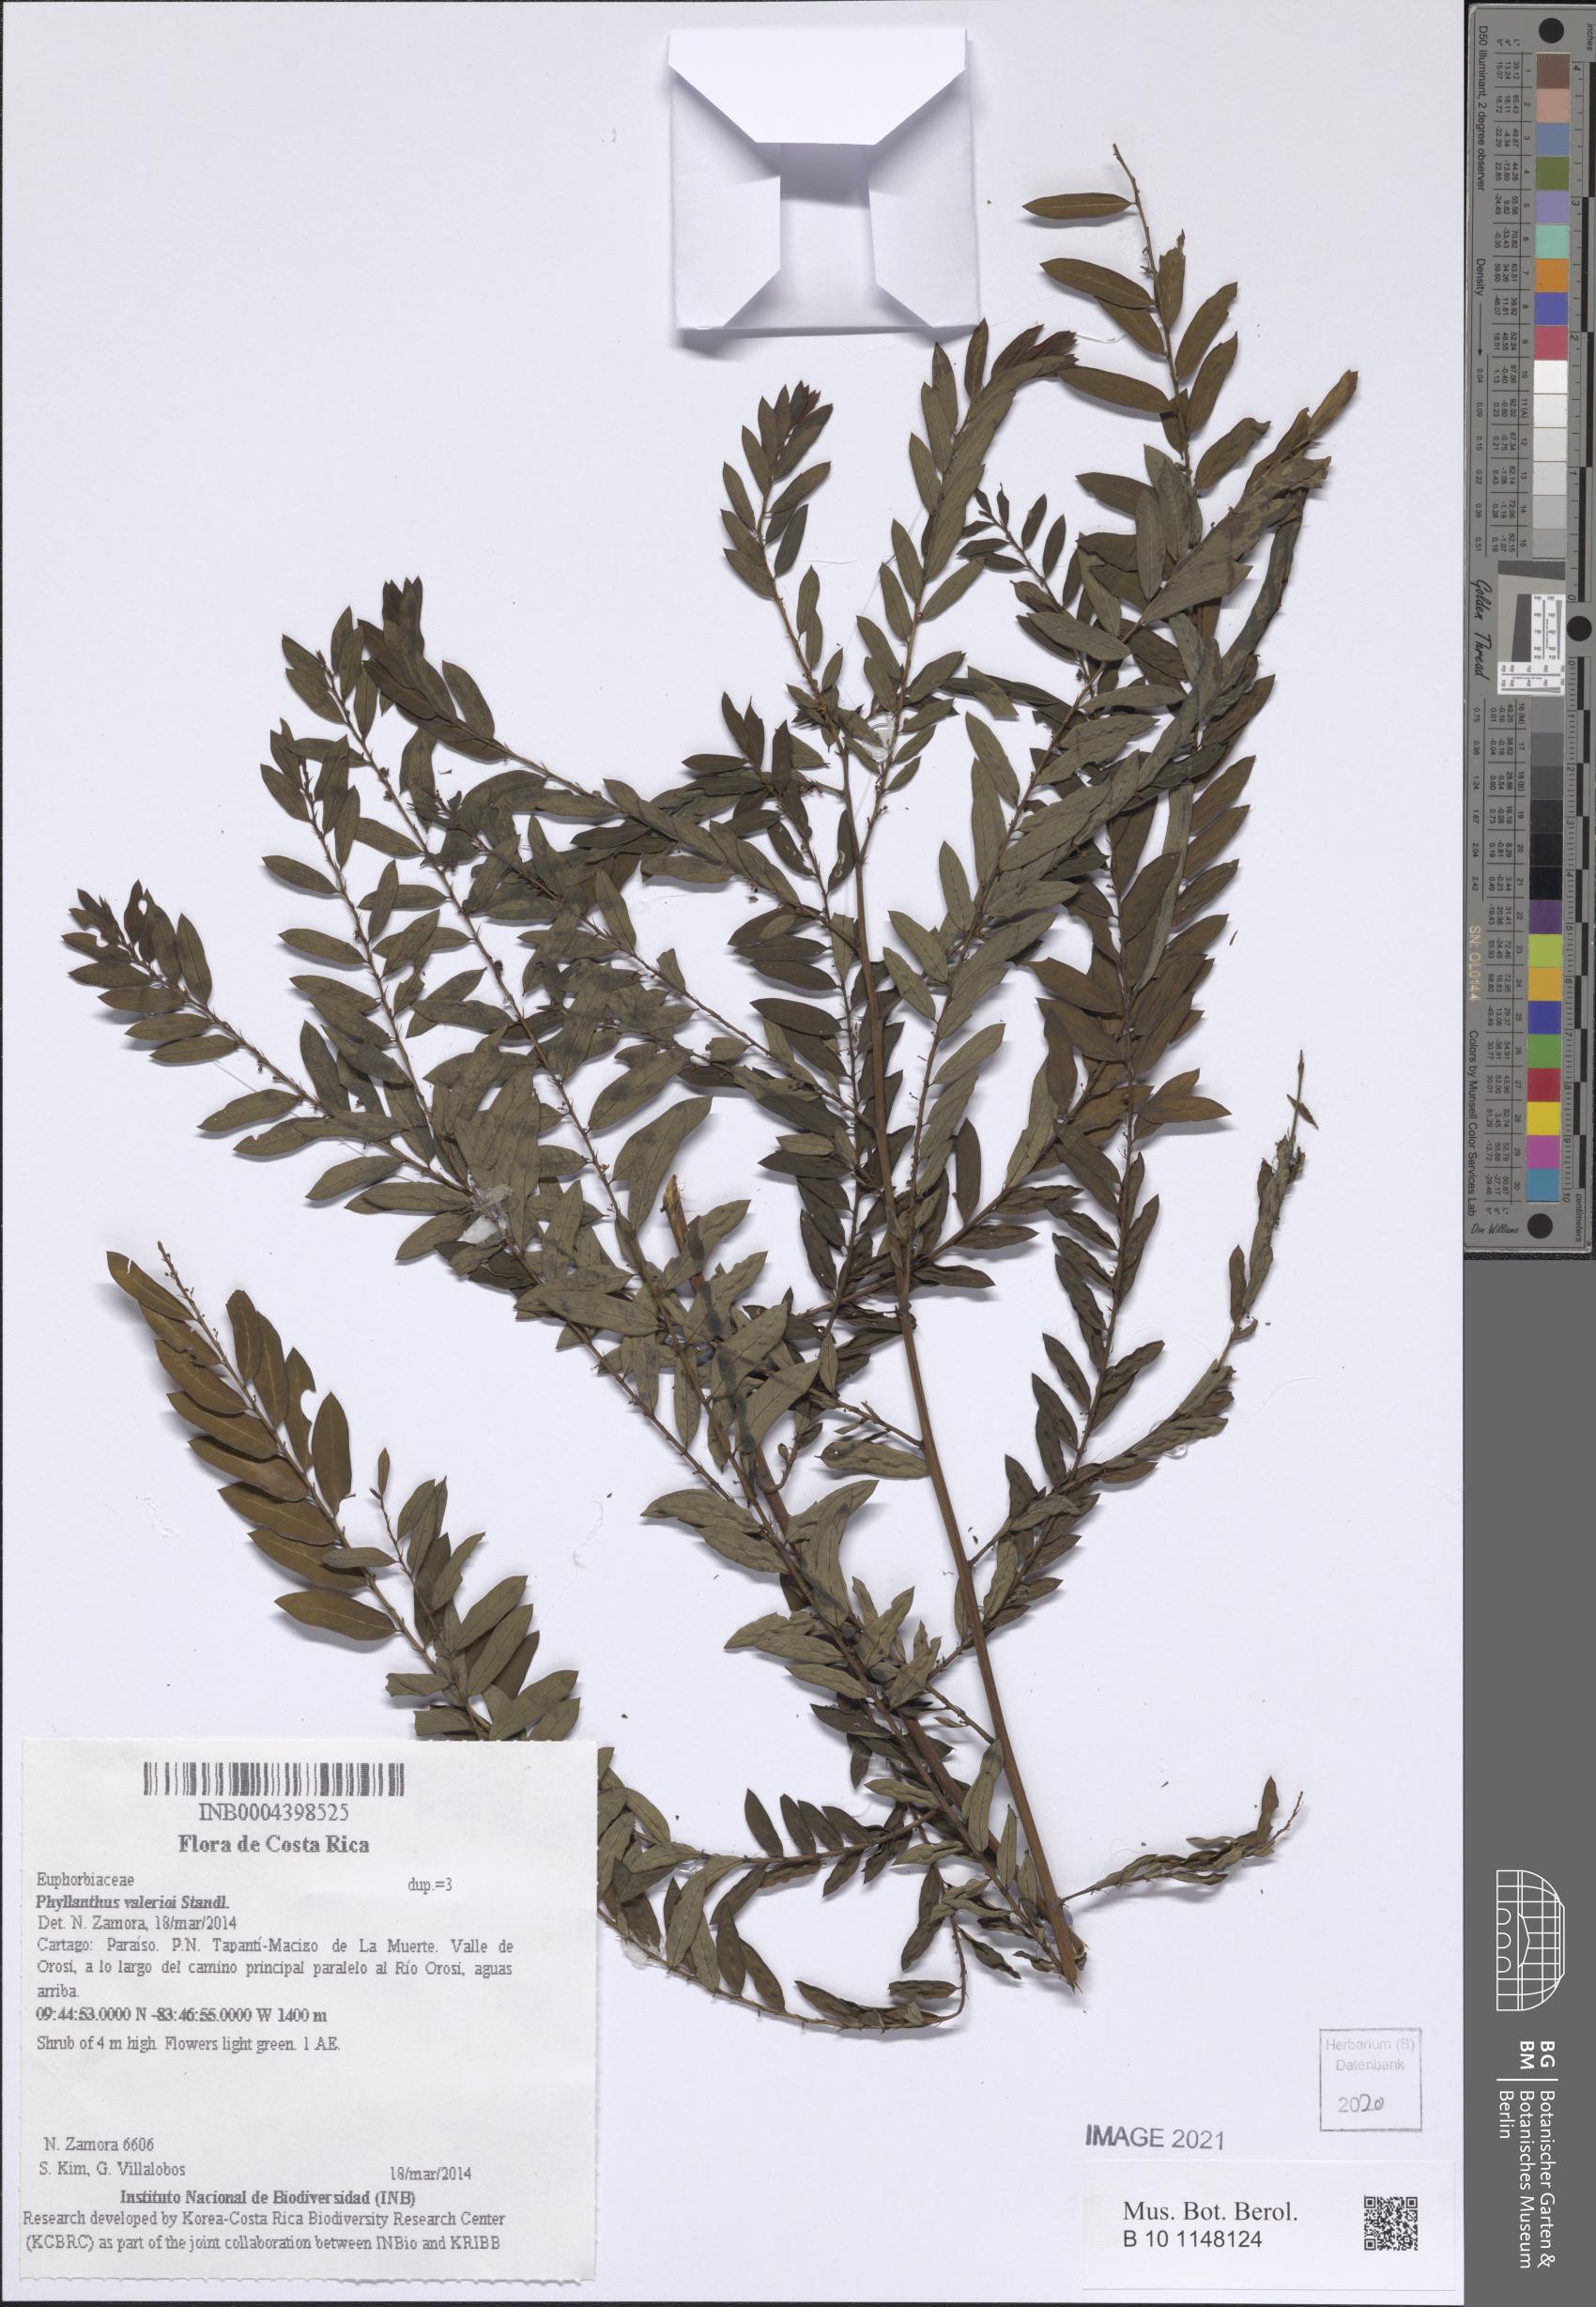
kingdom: Plantae
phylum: Tracheophyta
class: Magnoliopsida
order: Malpighiales
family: Phyllanthaceae
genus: Phyllanthus
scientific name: Phyllanthus valerioi
